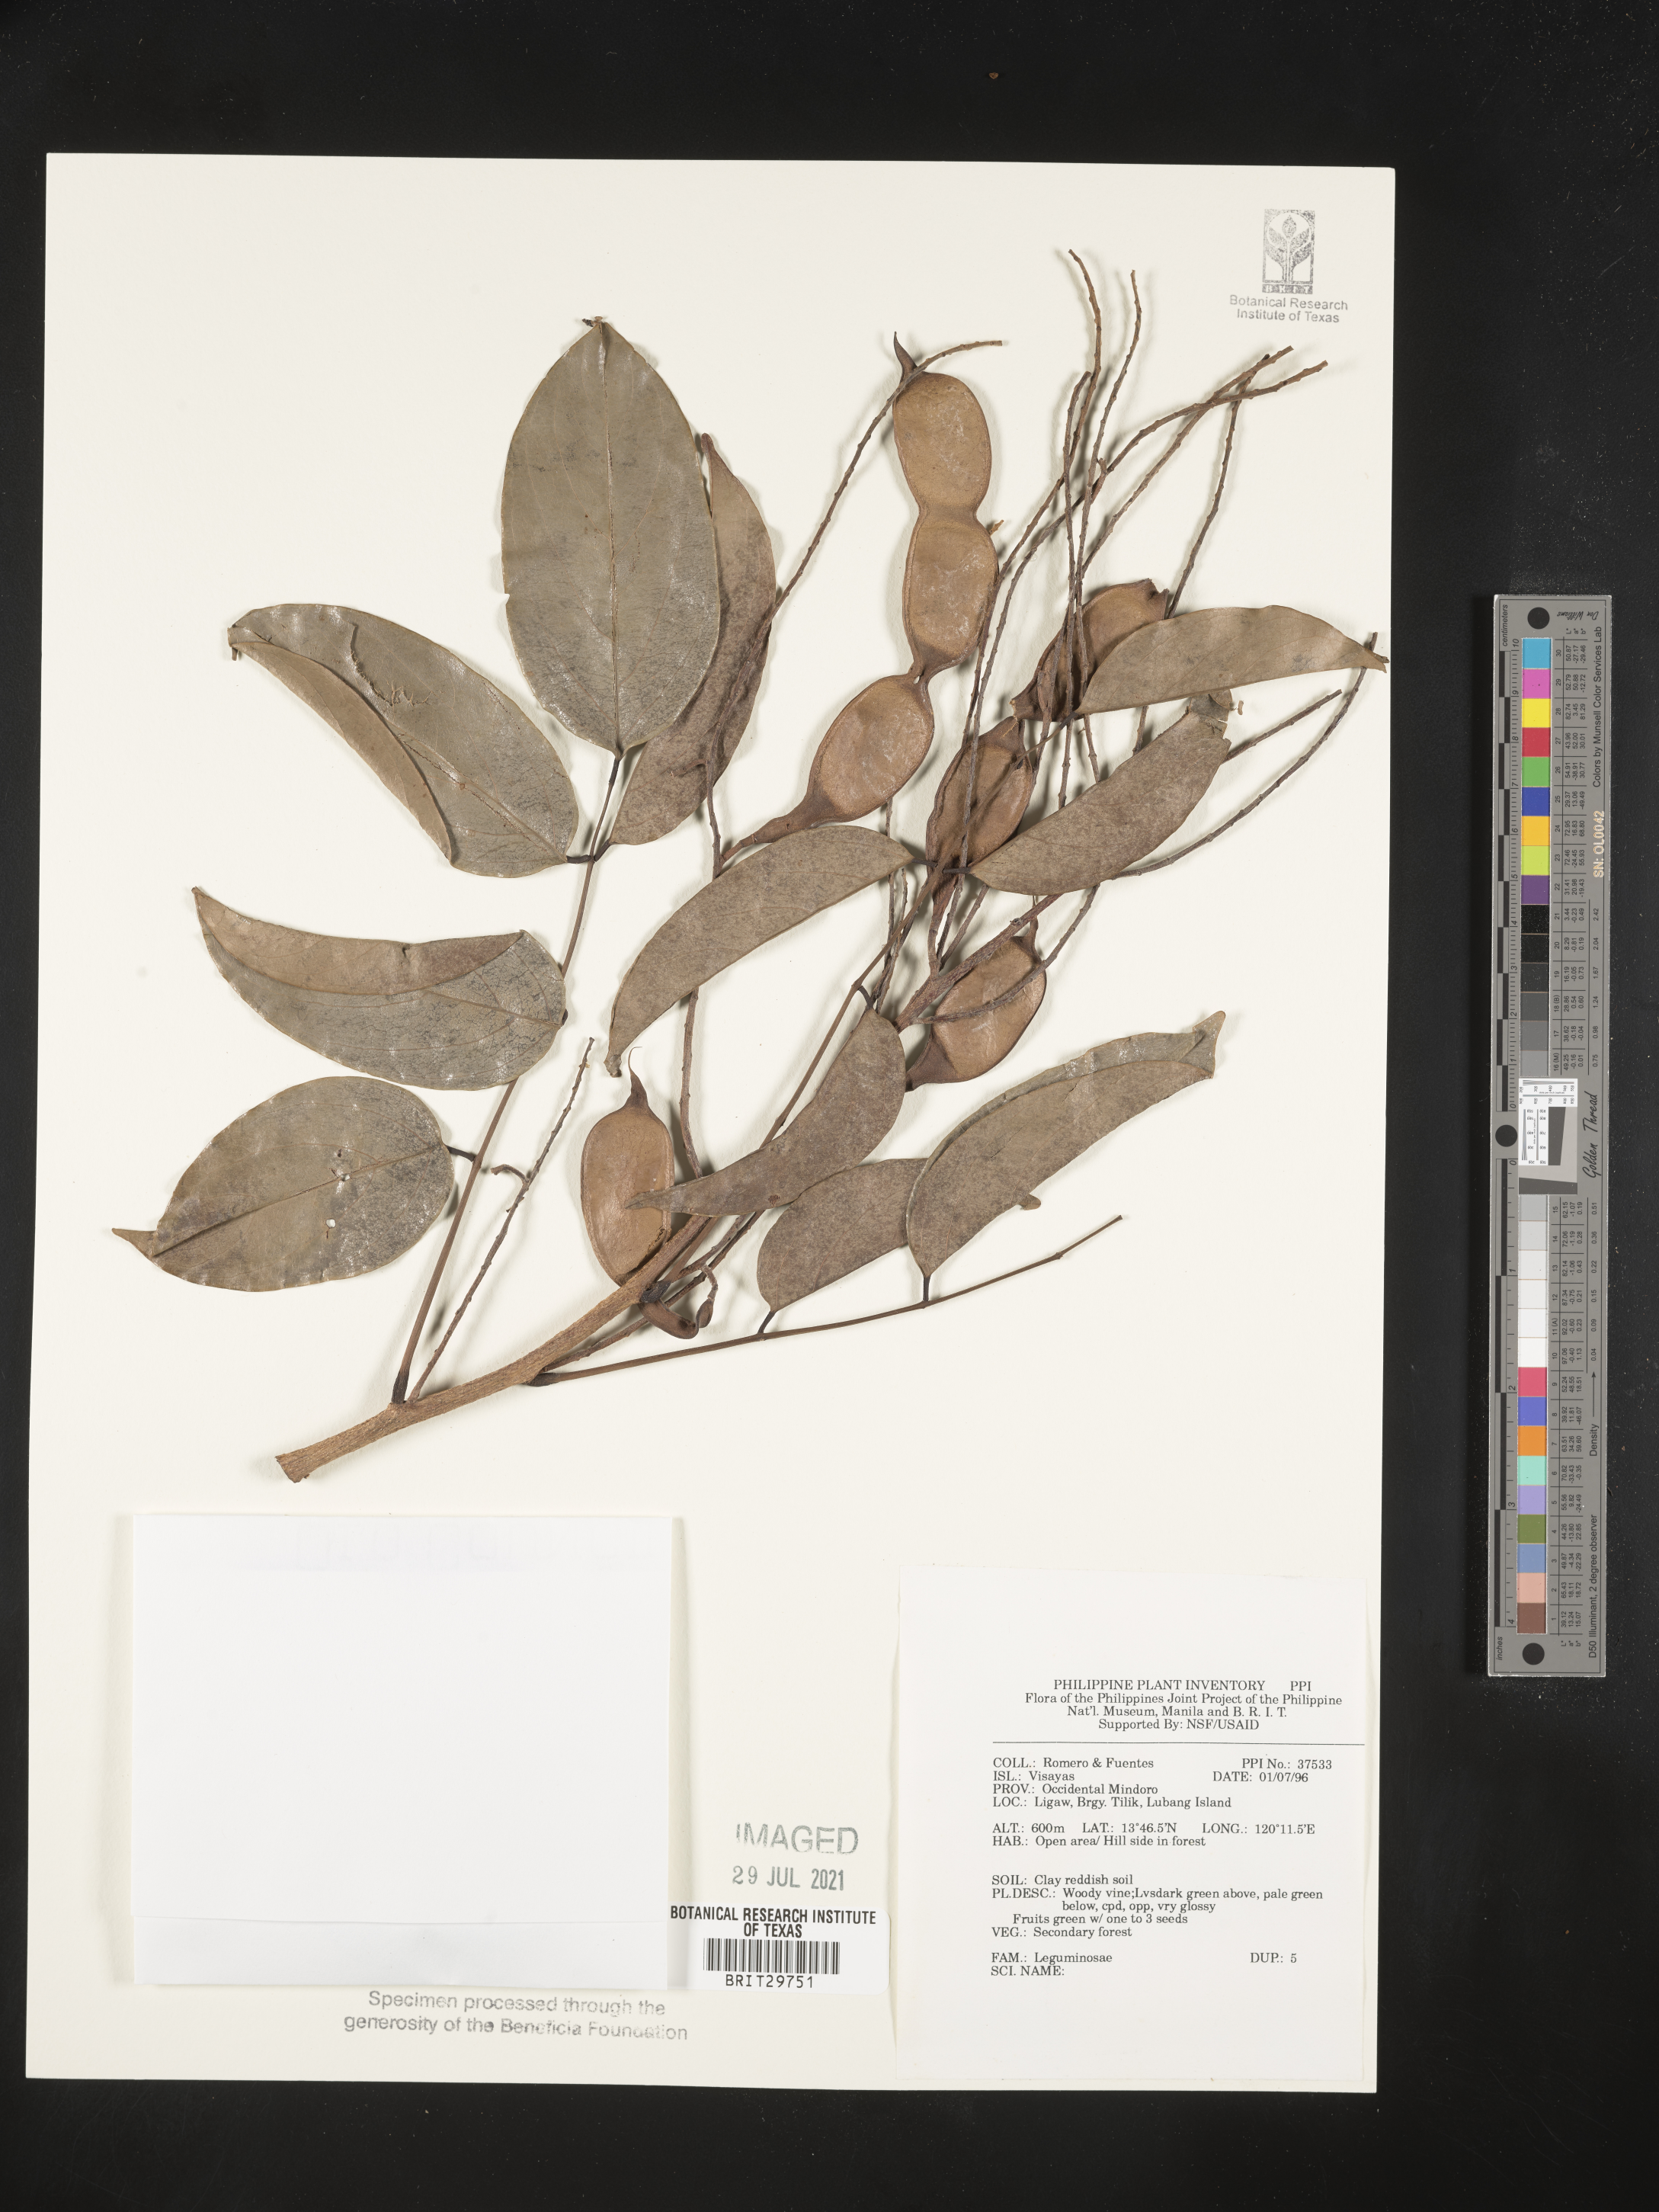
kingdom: Plantae
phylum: Tracheophyta
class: Magnoliopsida
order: Fabales
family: Fabaceae
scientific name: Fabaceae
